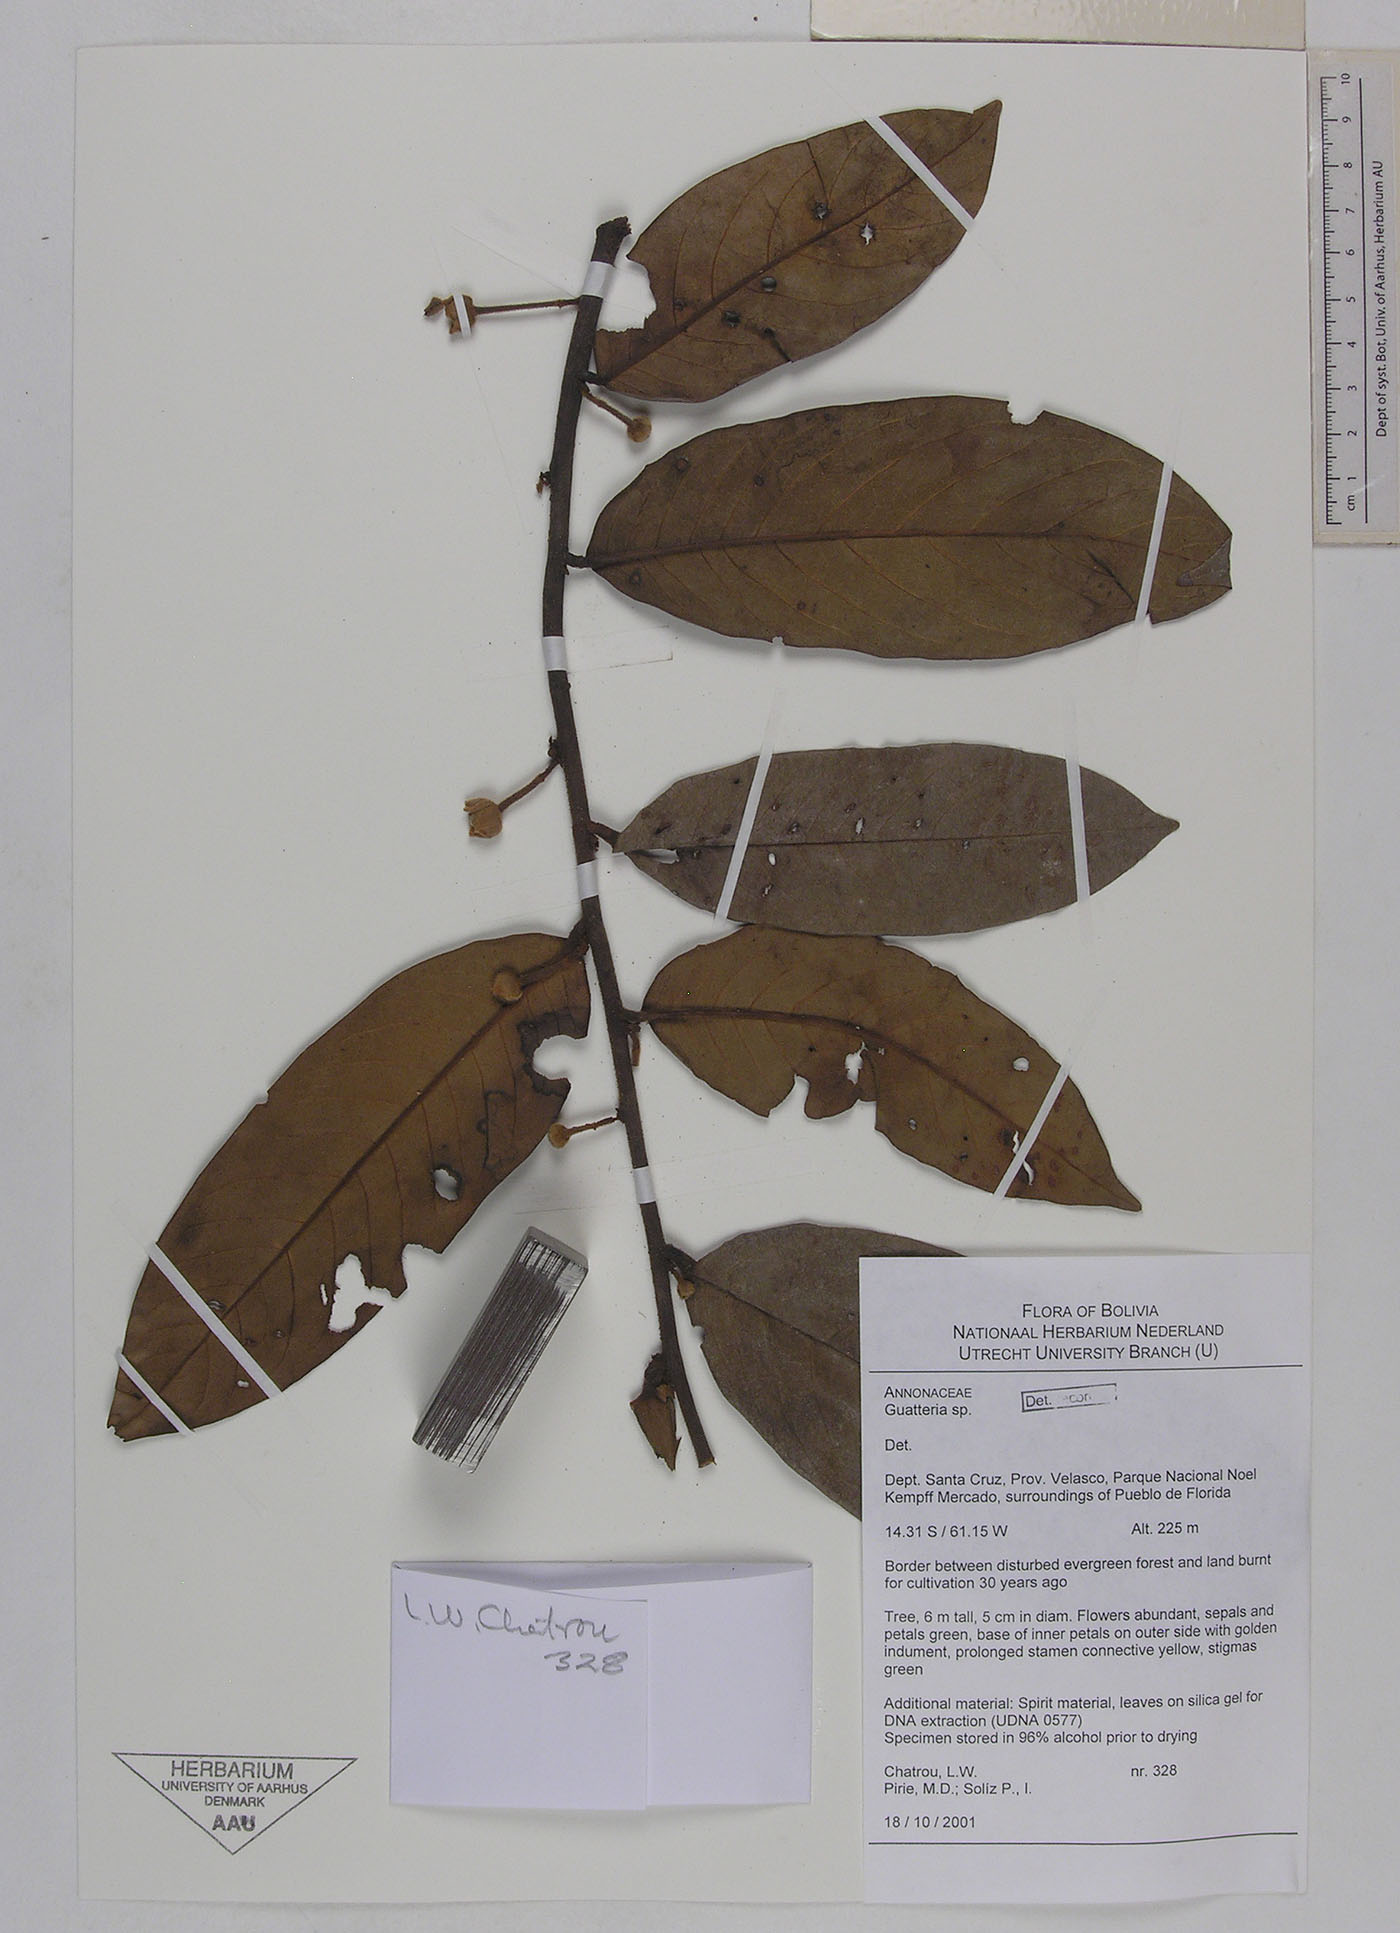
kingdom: Plantae
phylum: Tracheophyta
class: Magnoliopsida
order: Magnoliales
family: Annonaceae
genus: Guatteria
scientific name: Guatteria punctata
